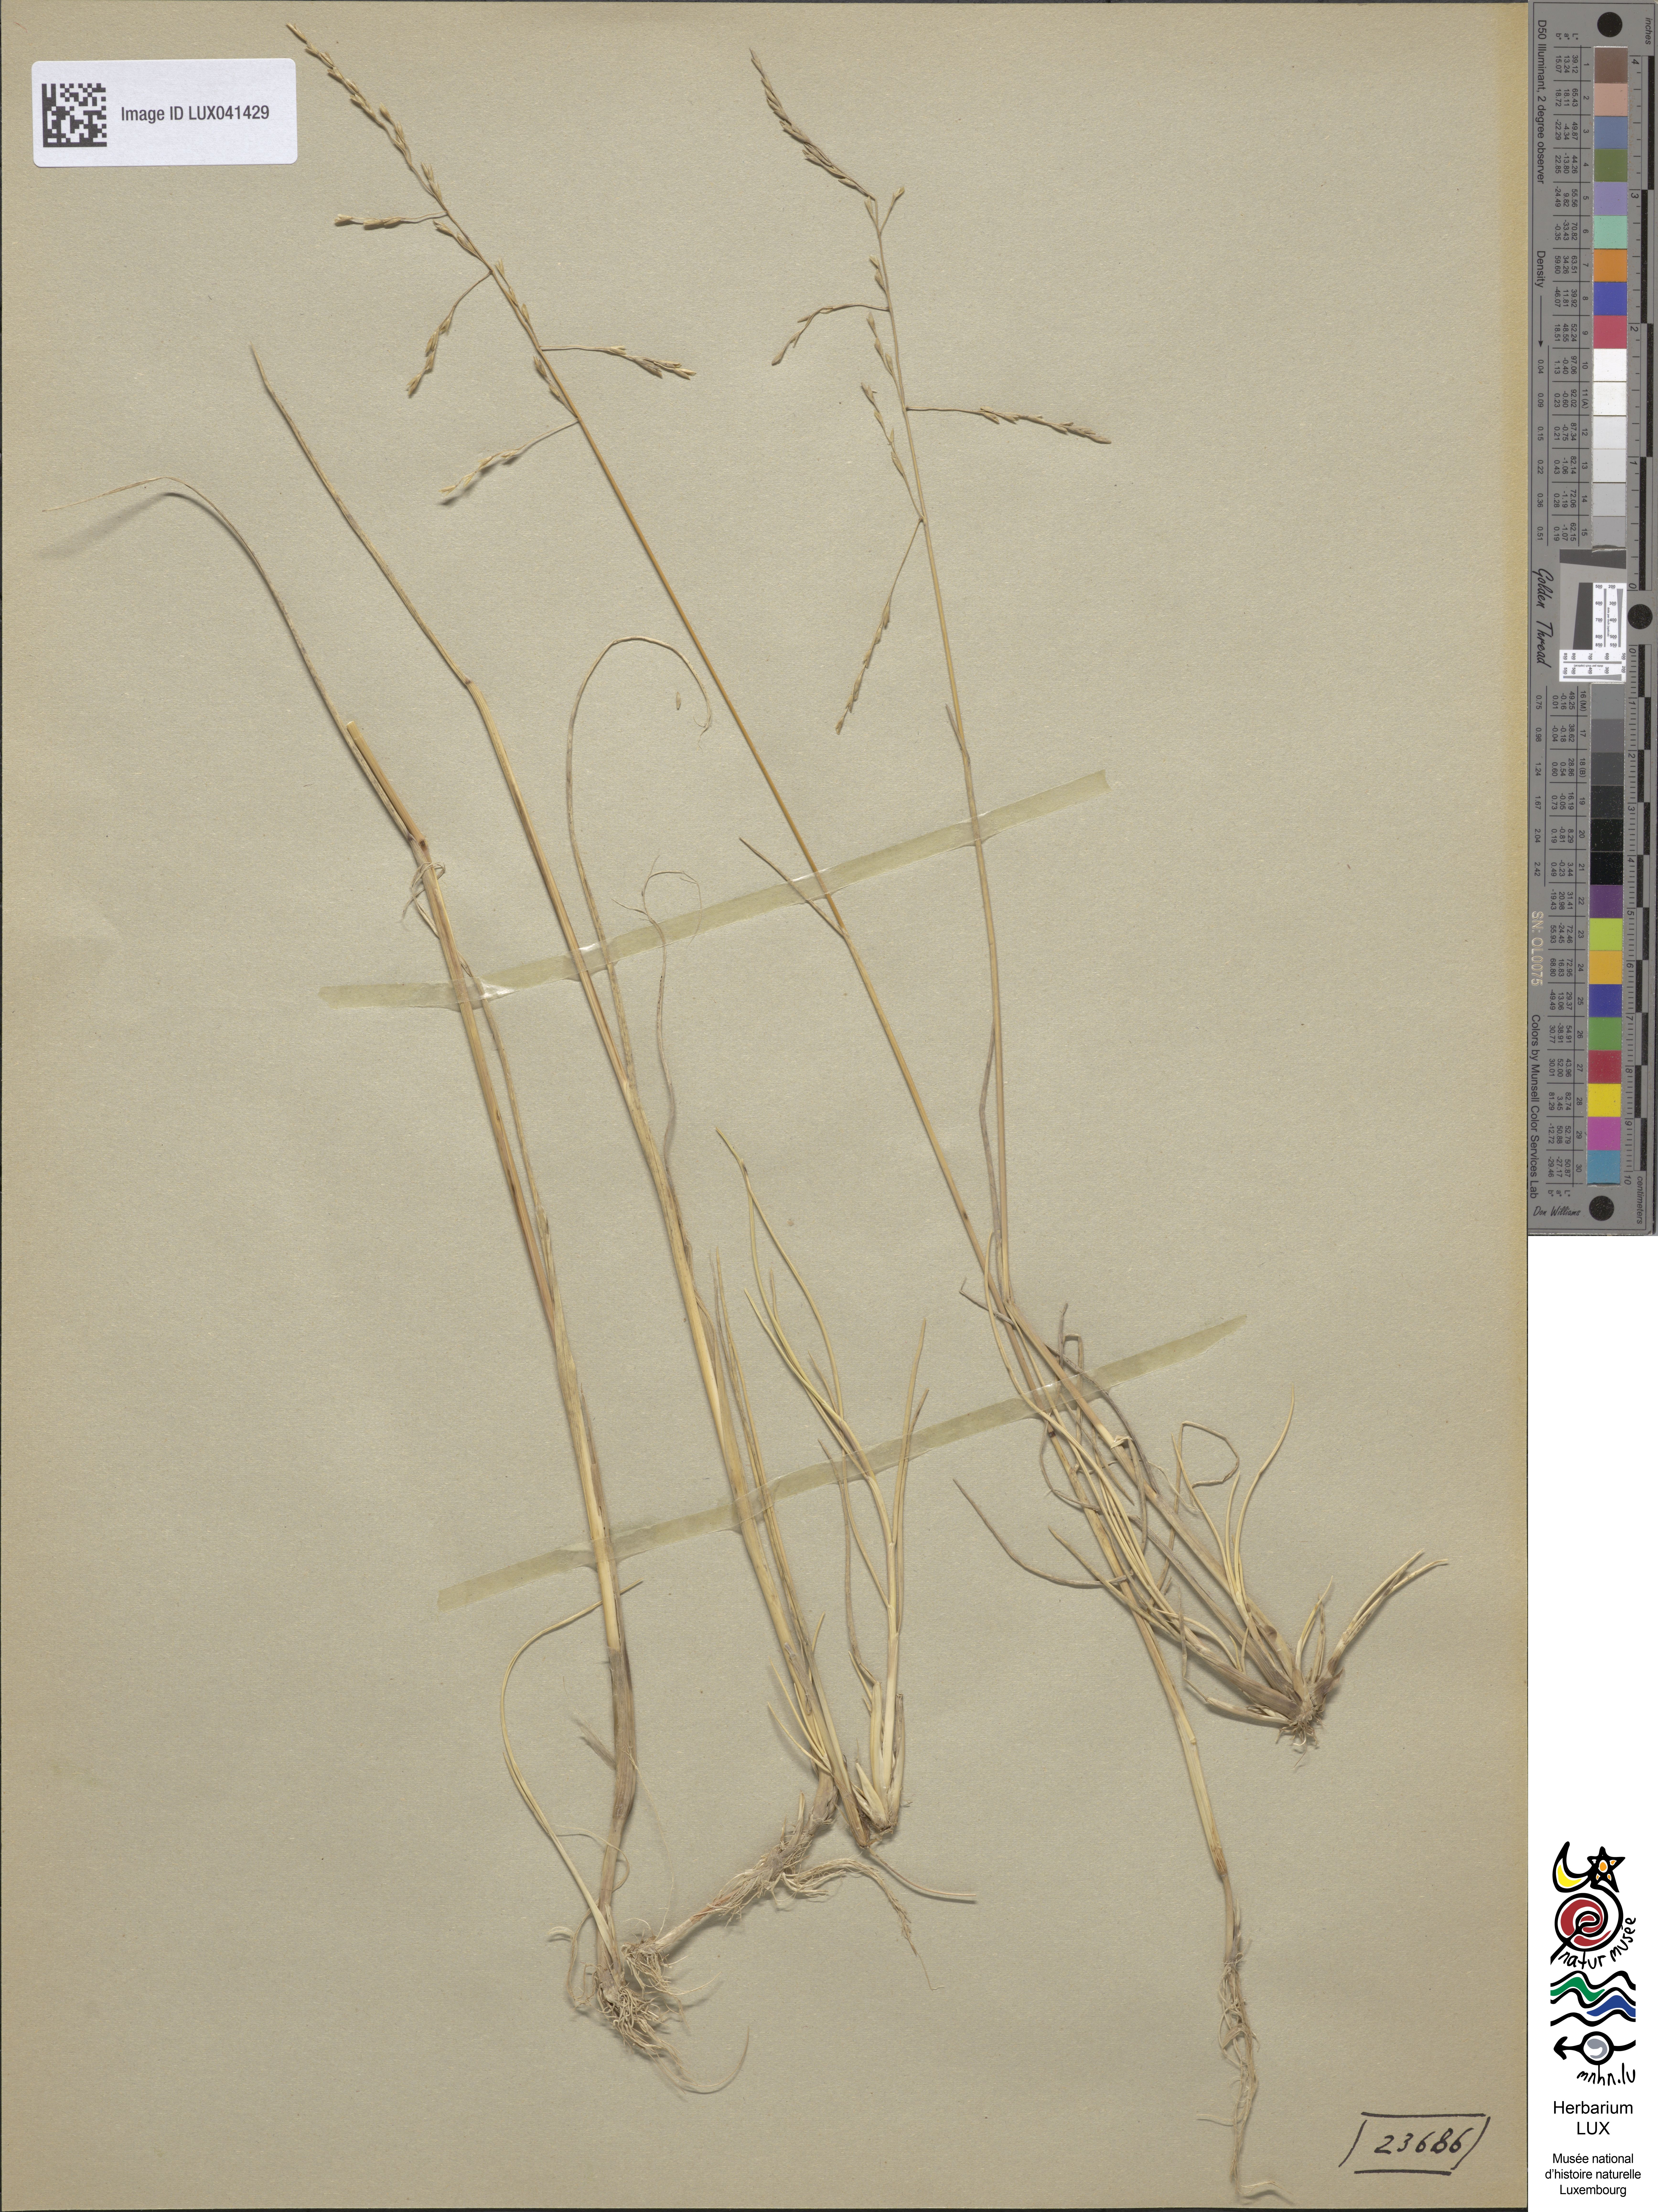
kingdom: Plantae
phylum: Tracheophyta
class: Liliopsida
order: Poales
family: Poaceae
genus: Puccinellia
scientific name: Puccinellia maritima
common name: Common saltmarsh grass
